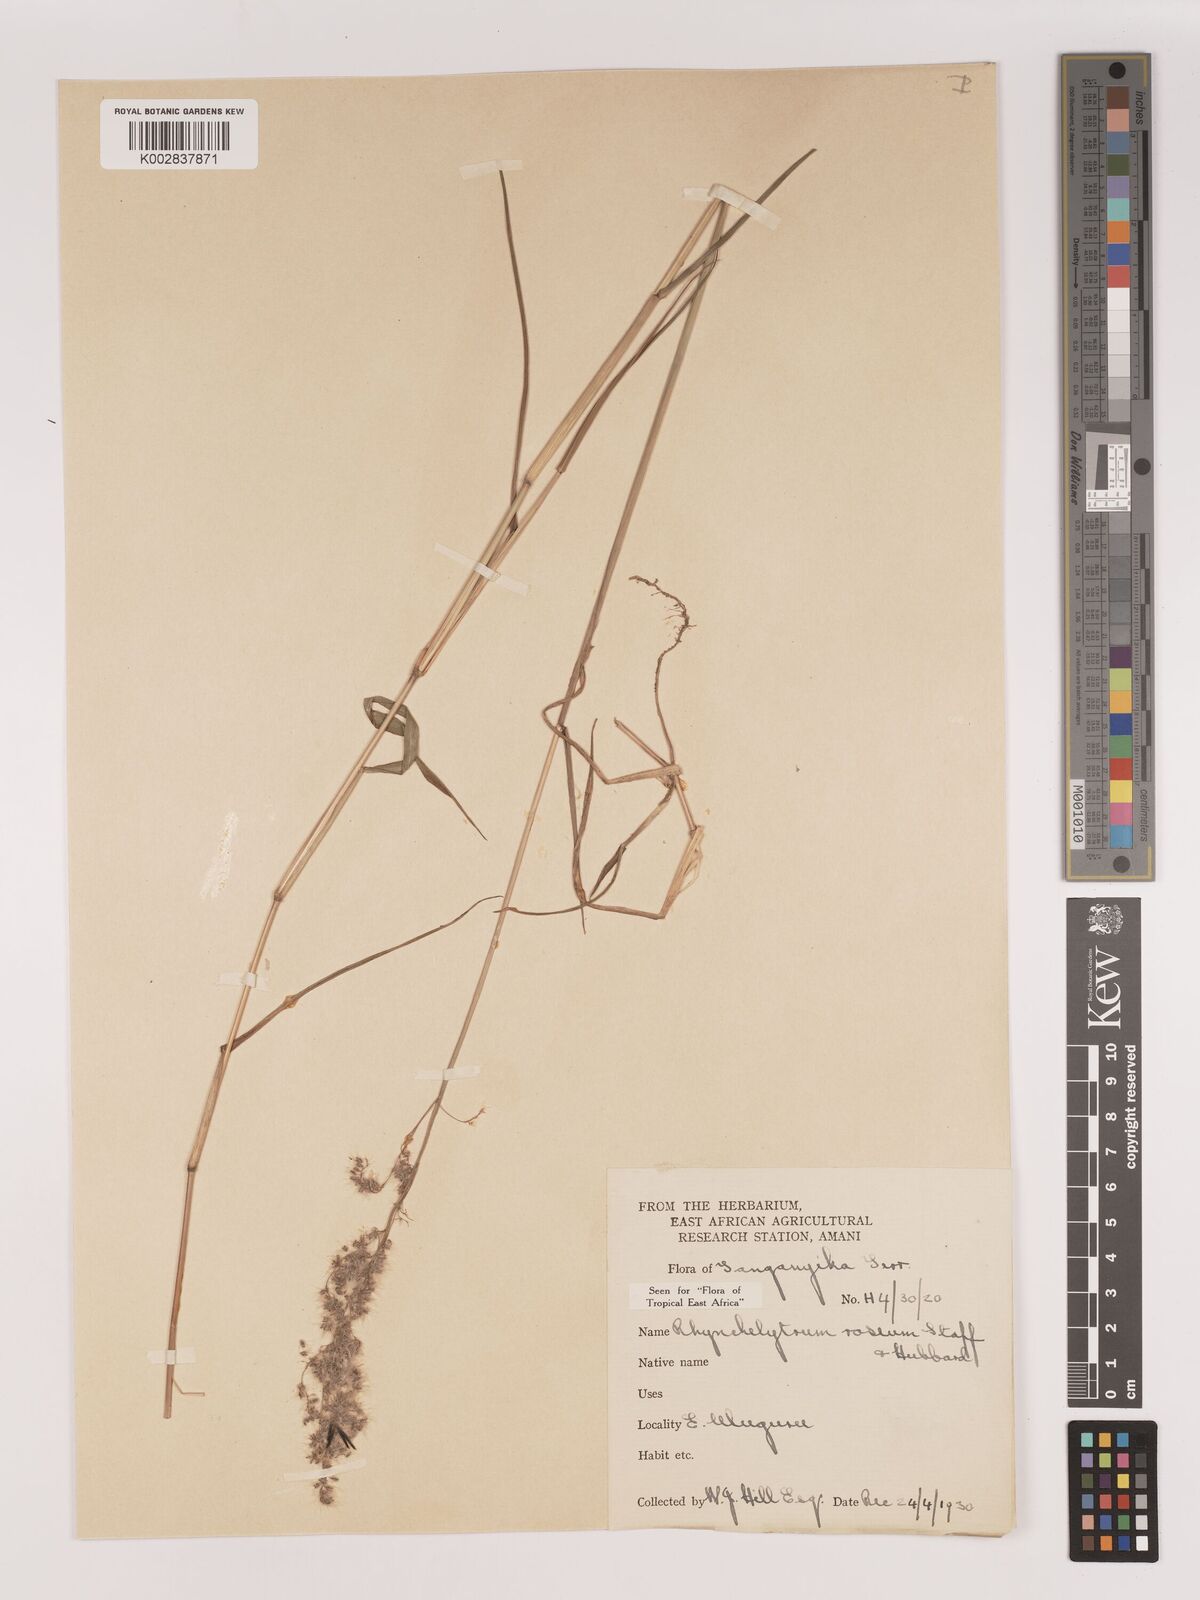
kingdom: Plantae
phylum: Tracheophyta
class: Liliopsida
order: Poales
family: Poaceae
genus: Melinis
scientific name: Melinis repens
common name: Rose natal grass
